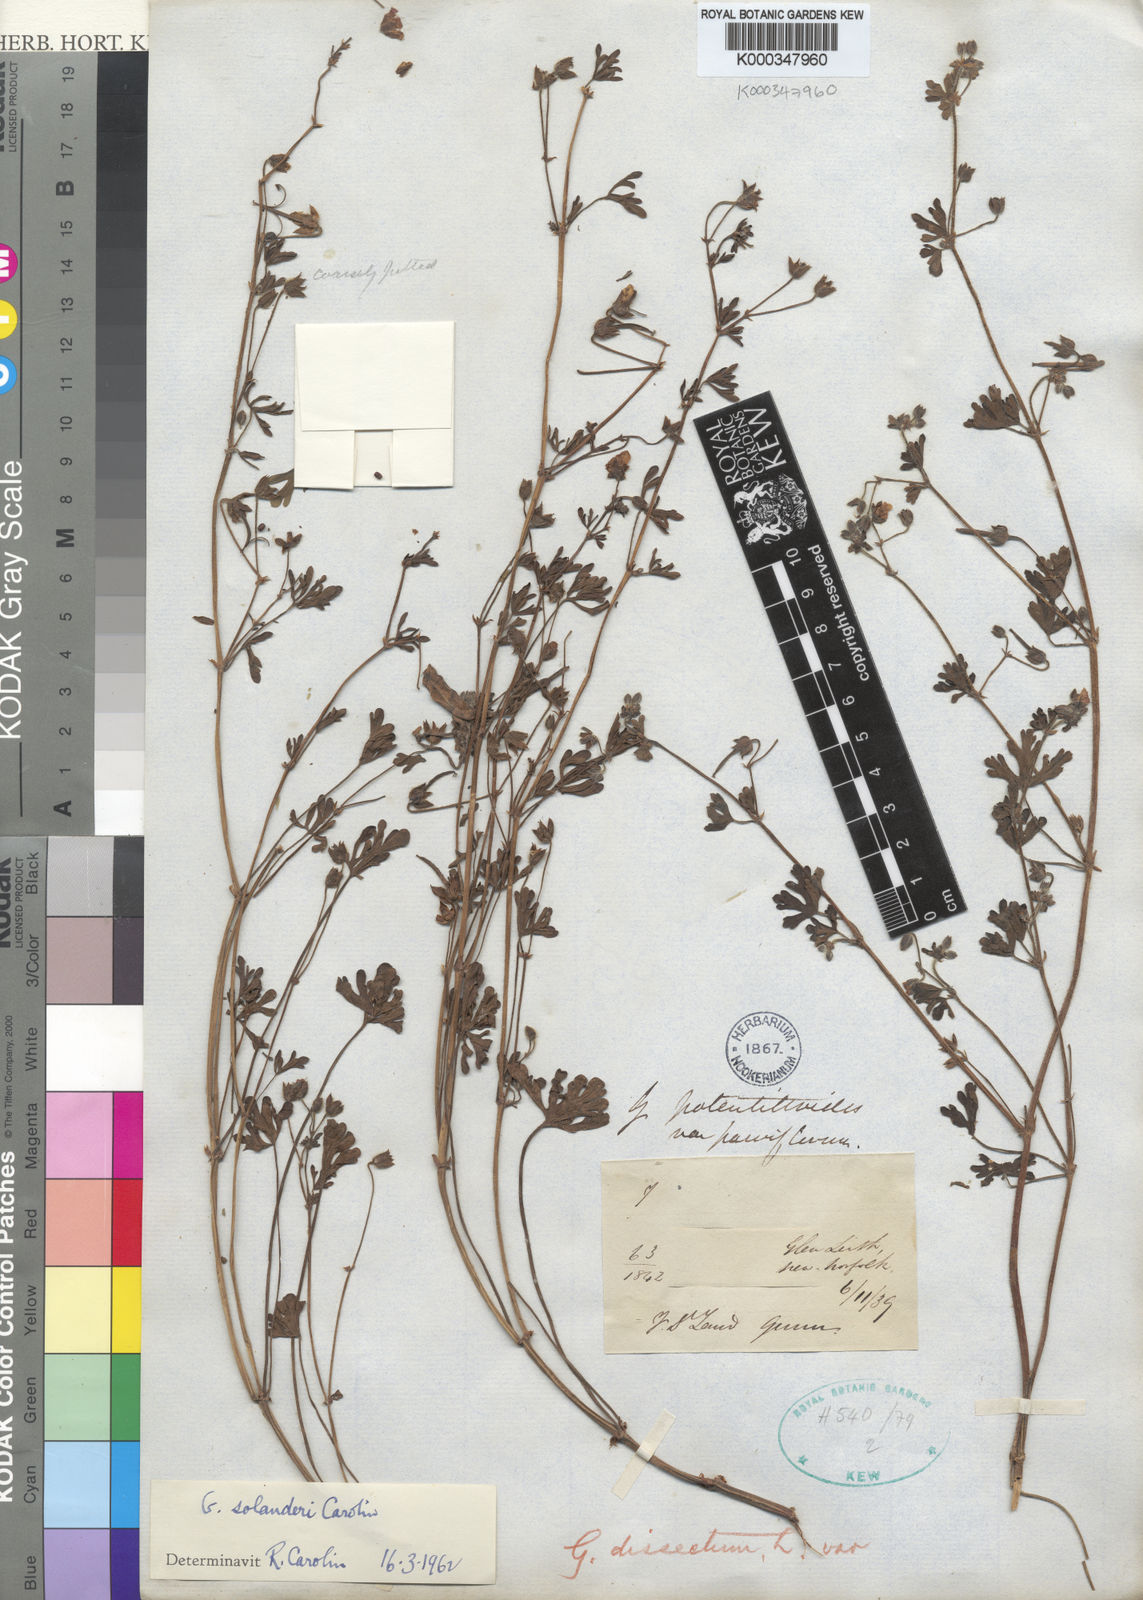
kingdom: Plantae
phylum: Tracheophyta
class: Magnoliopsida
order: Geraniales
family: Geraniaceae
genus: Geranium
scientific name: Geranium solanderi
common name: Solander's geranium
